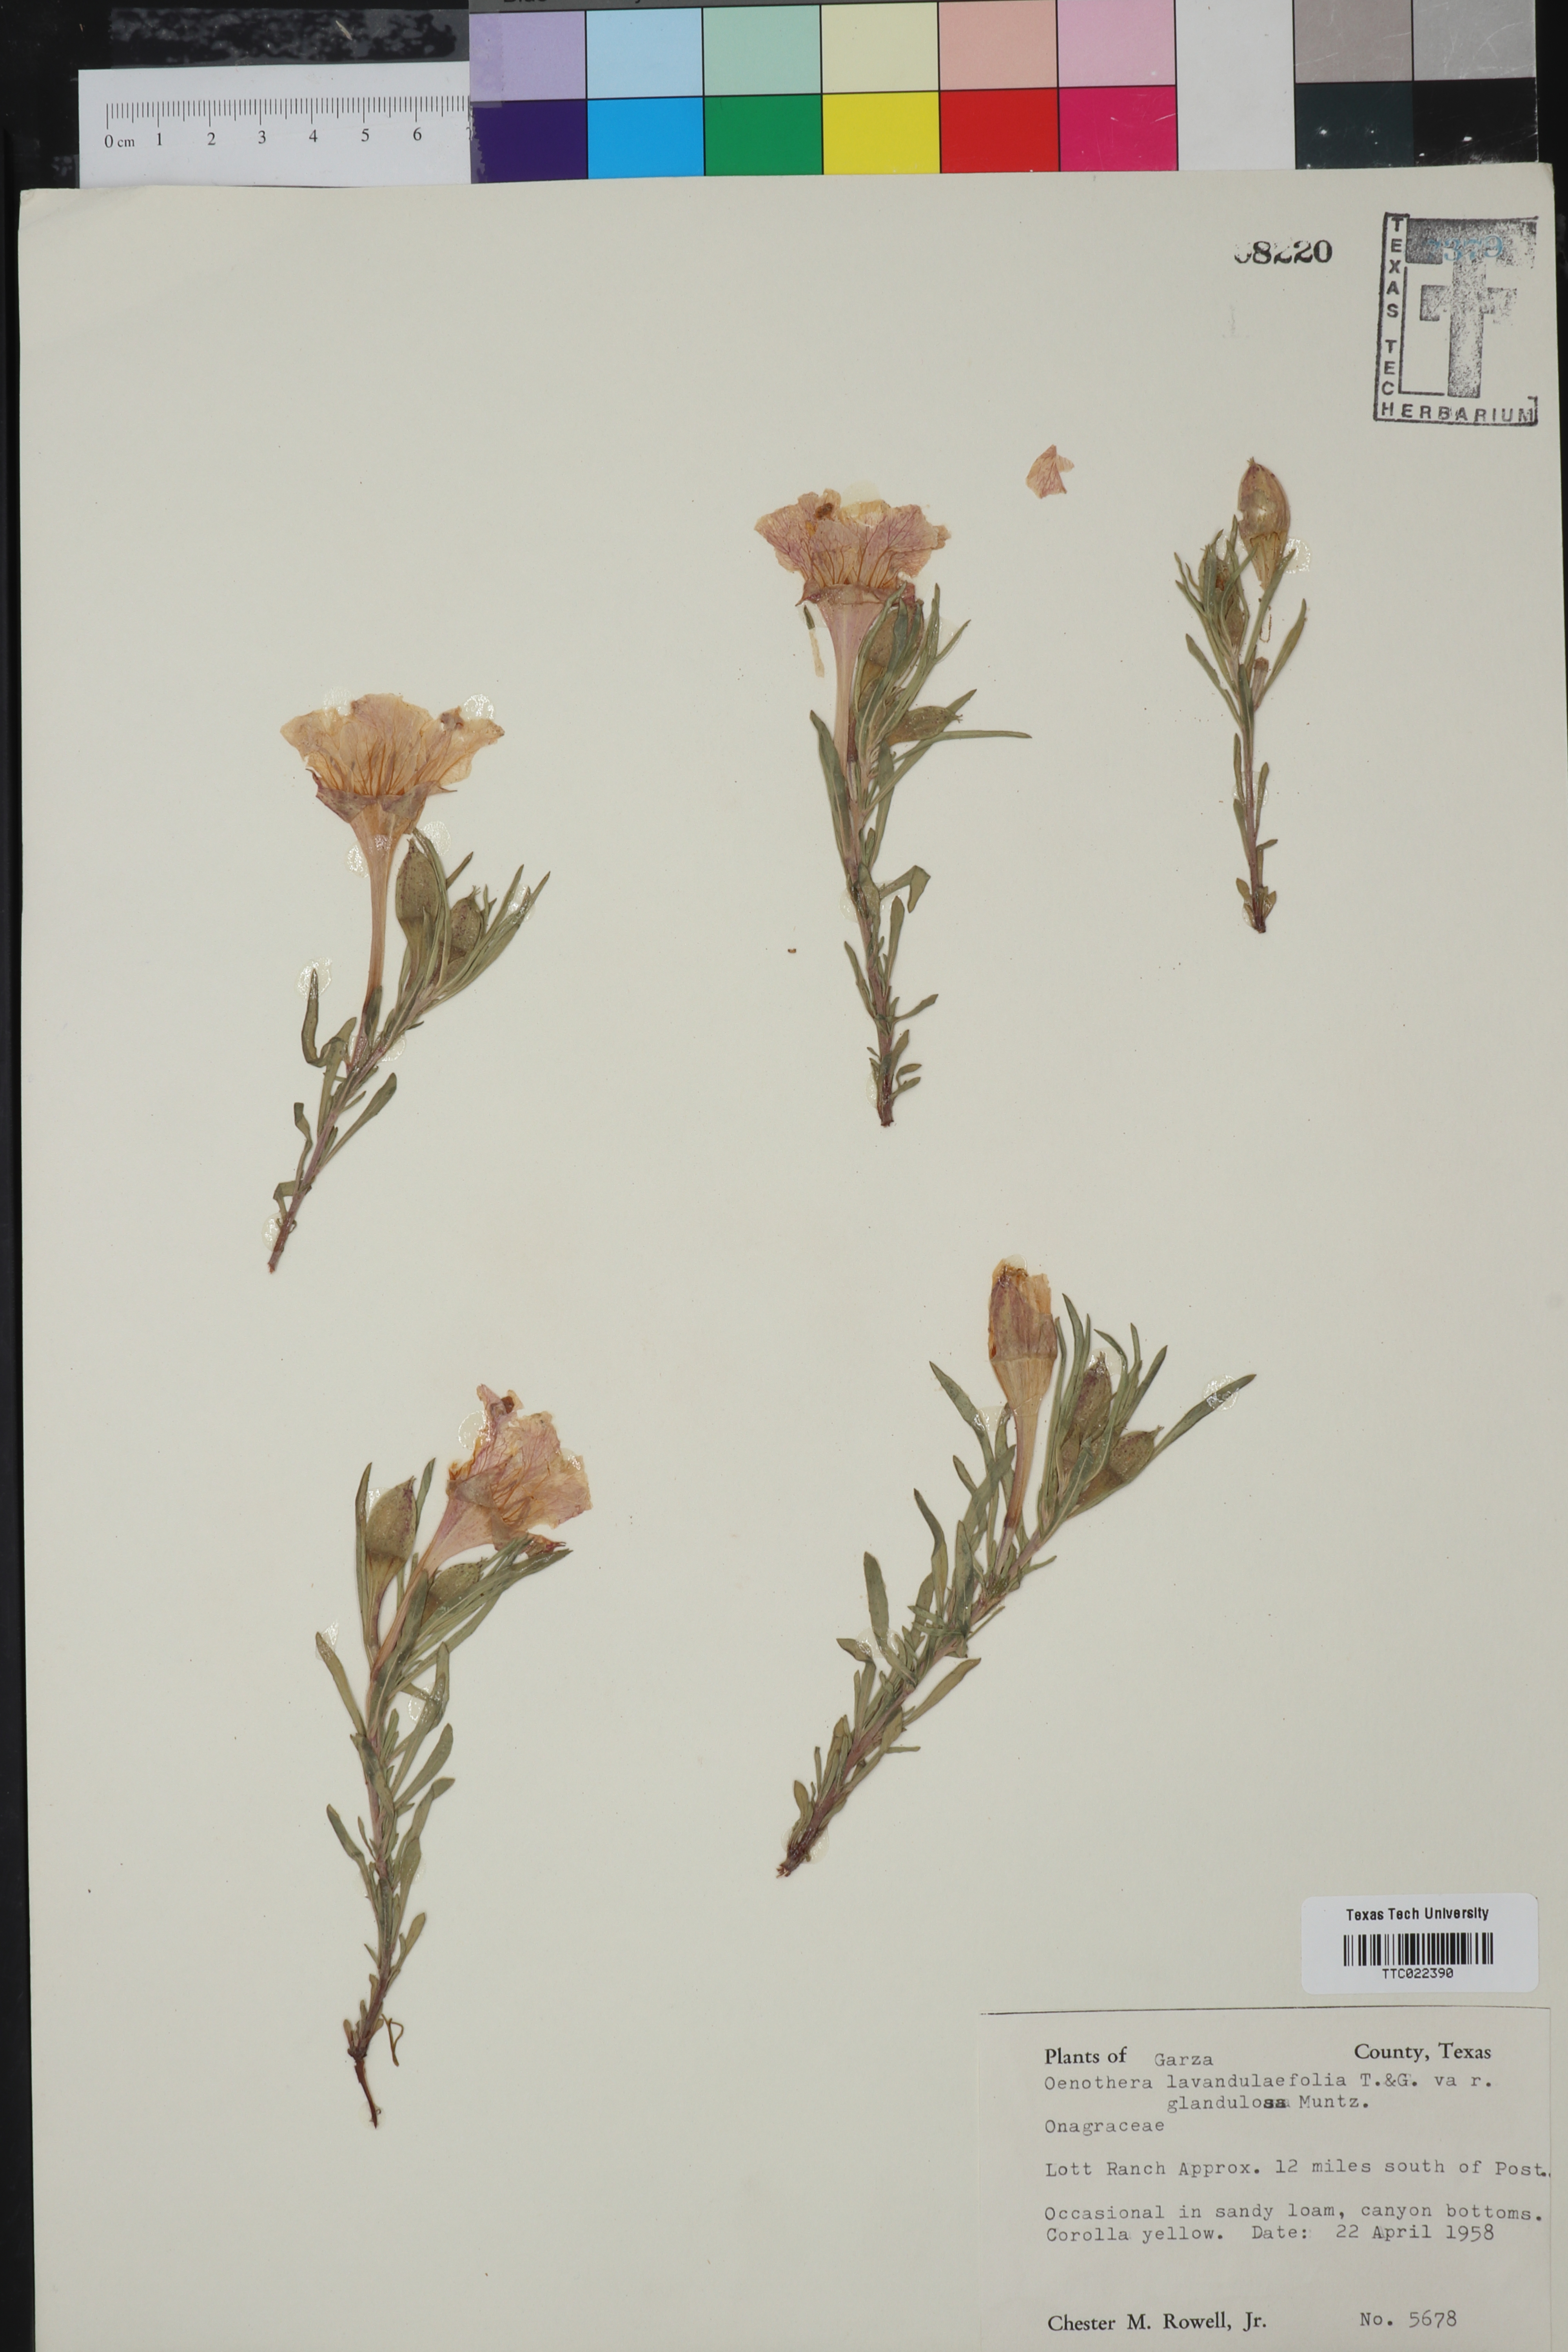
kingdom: Plantae
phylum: Tracheophyta
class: Magnoliopsida
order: Myrtales
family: Onagraceae
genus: Oenothera
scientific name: Oenothera lavandulifolia
